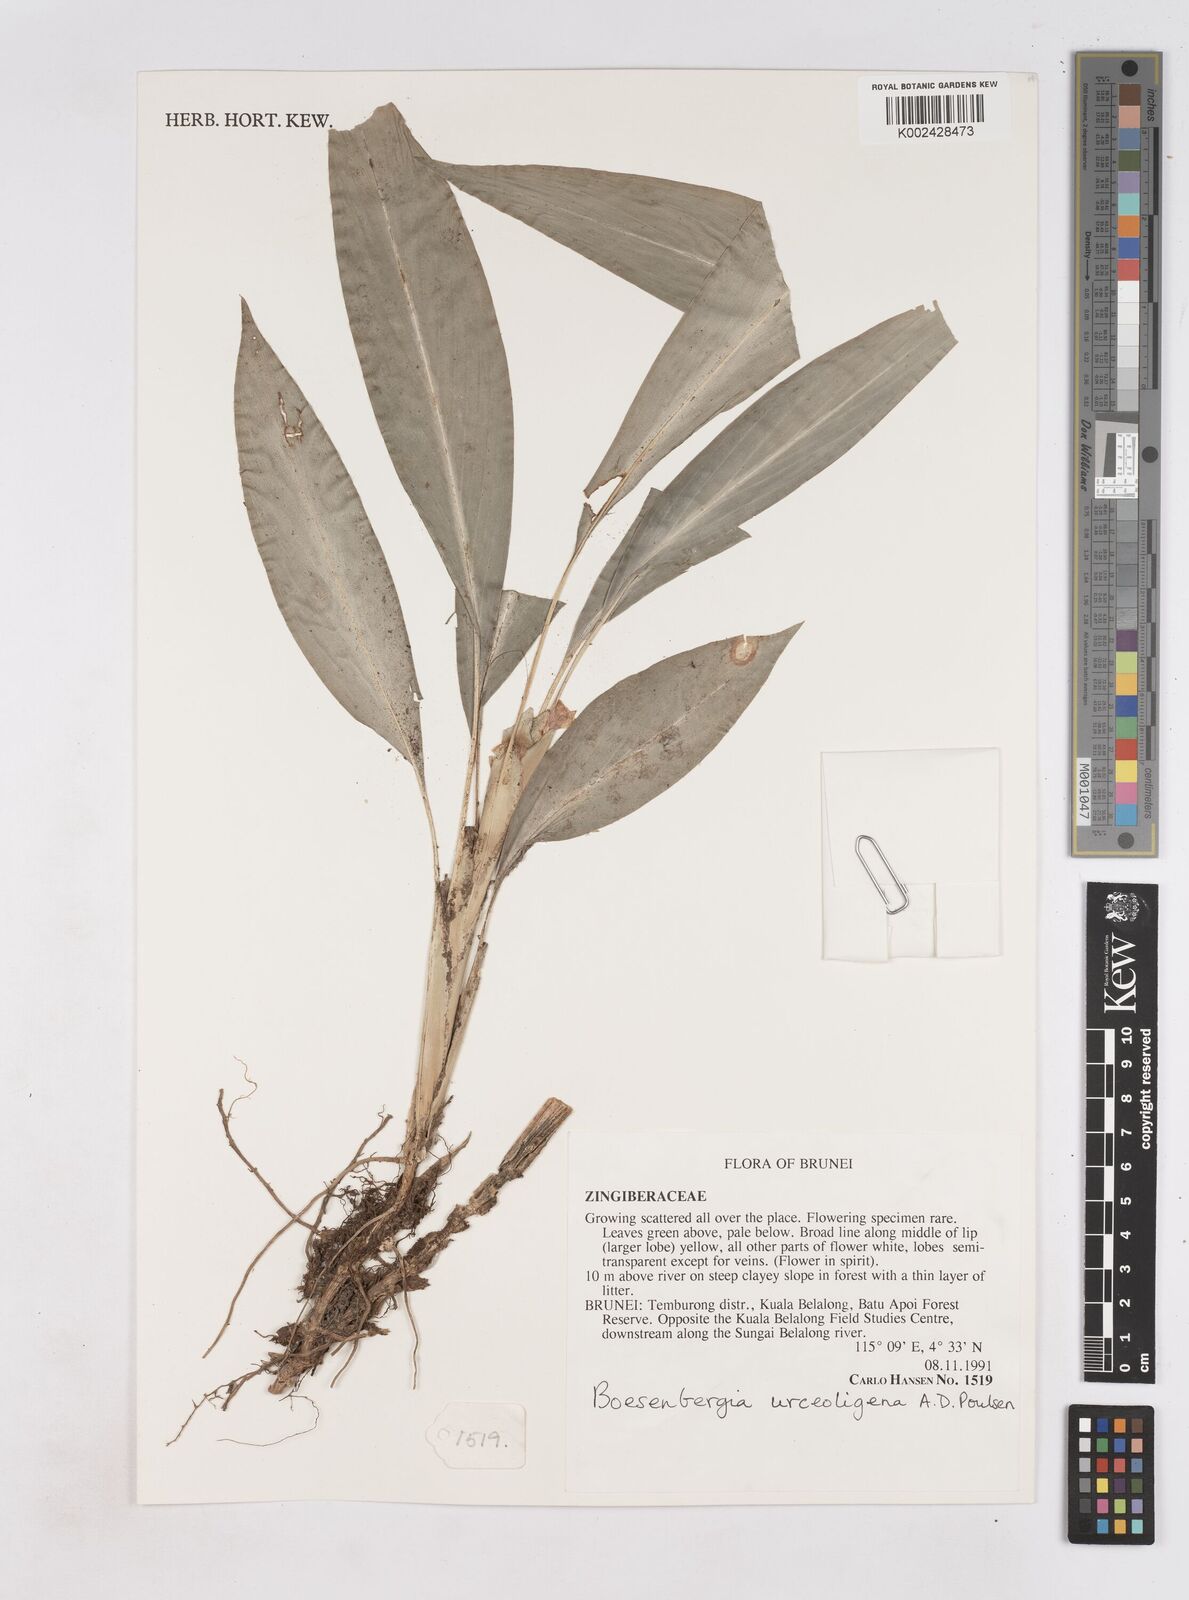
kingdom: Plantae
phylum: Tracheophyta
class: Liliopsida
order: Zingiberales
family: Zingiberaceae
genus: Boesenbergia
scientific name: Boesenbergia urceoligena
